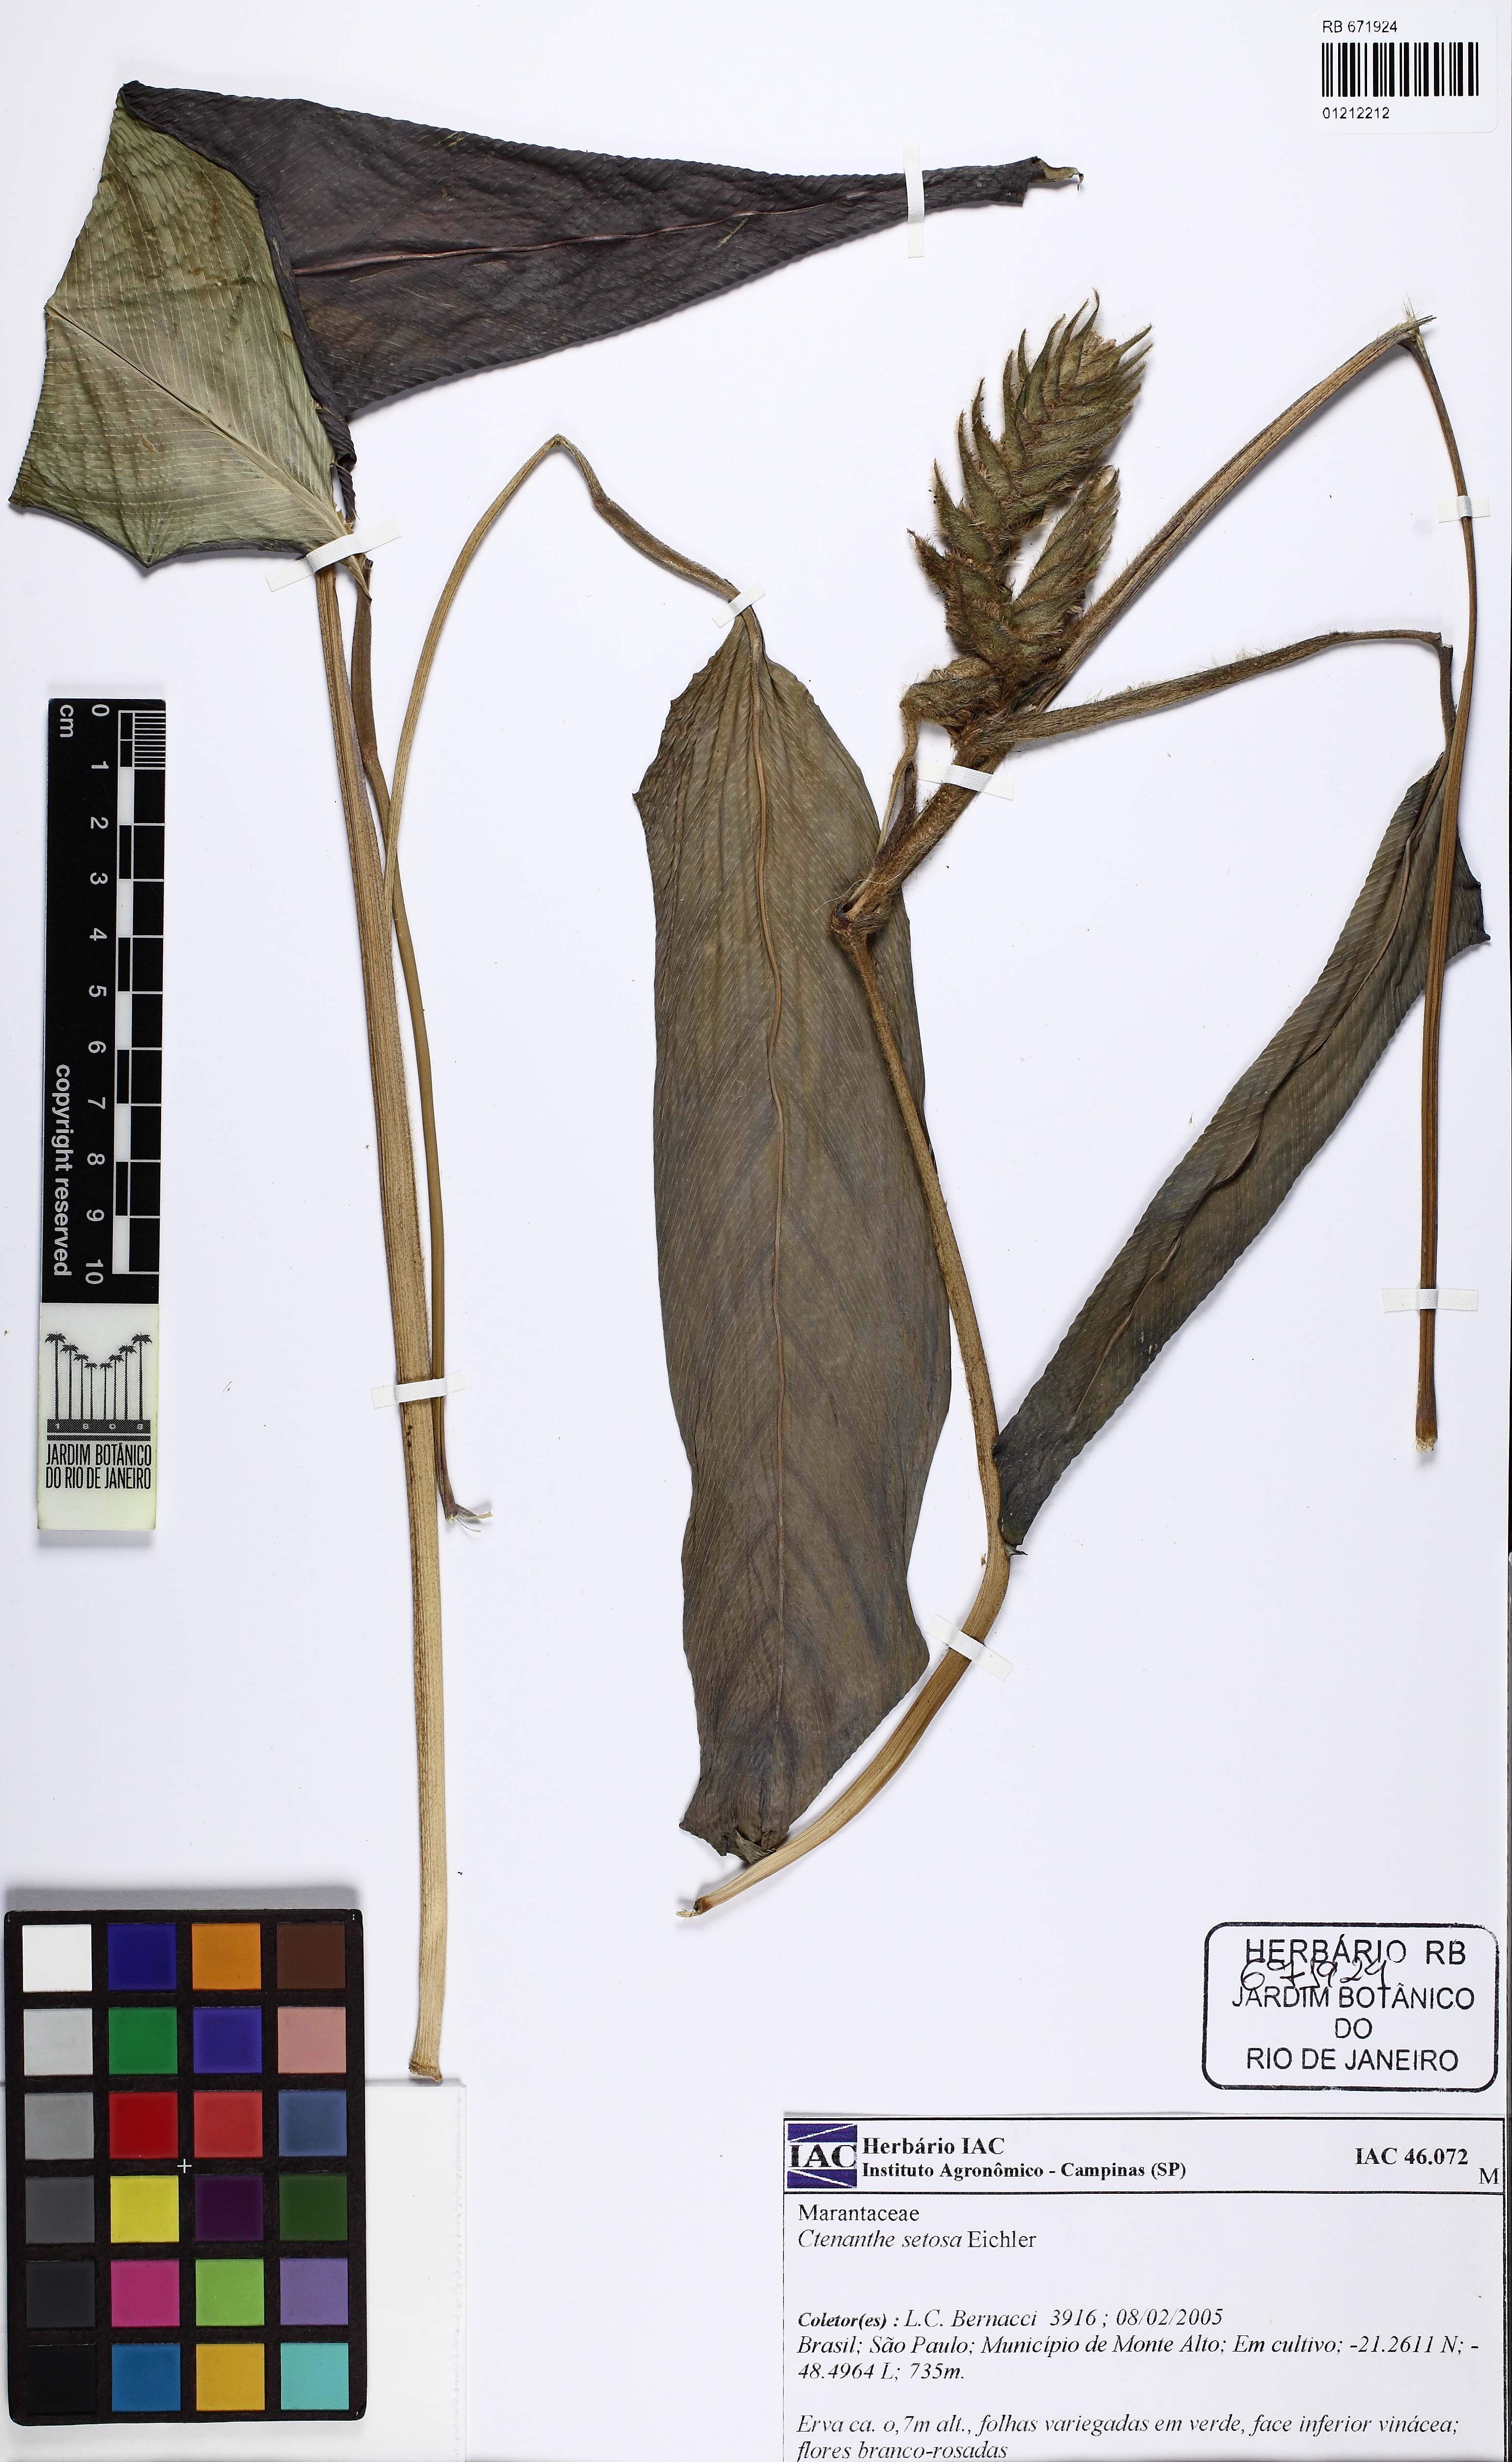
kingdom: Plantae
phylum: Tracheophyta
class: Liliopsida
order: Zingiberales
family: Marantaceae
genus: Ctenanthe
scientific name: Ctenanthe
